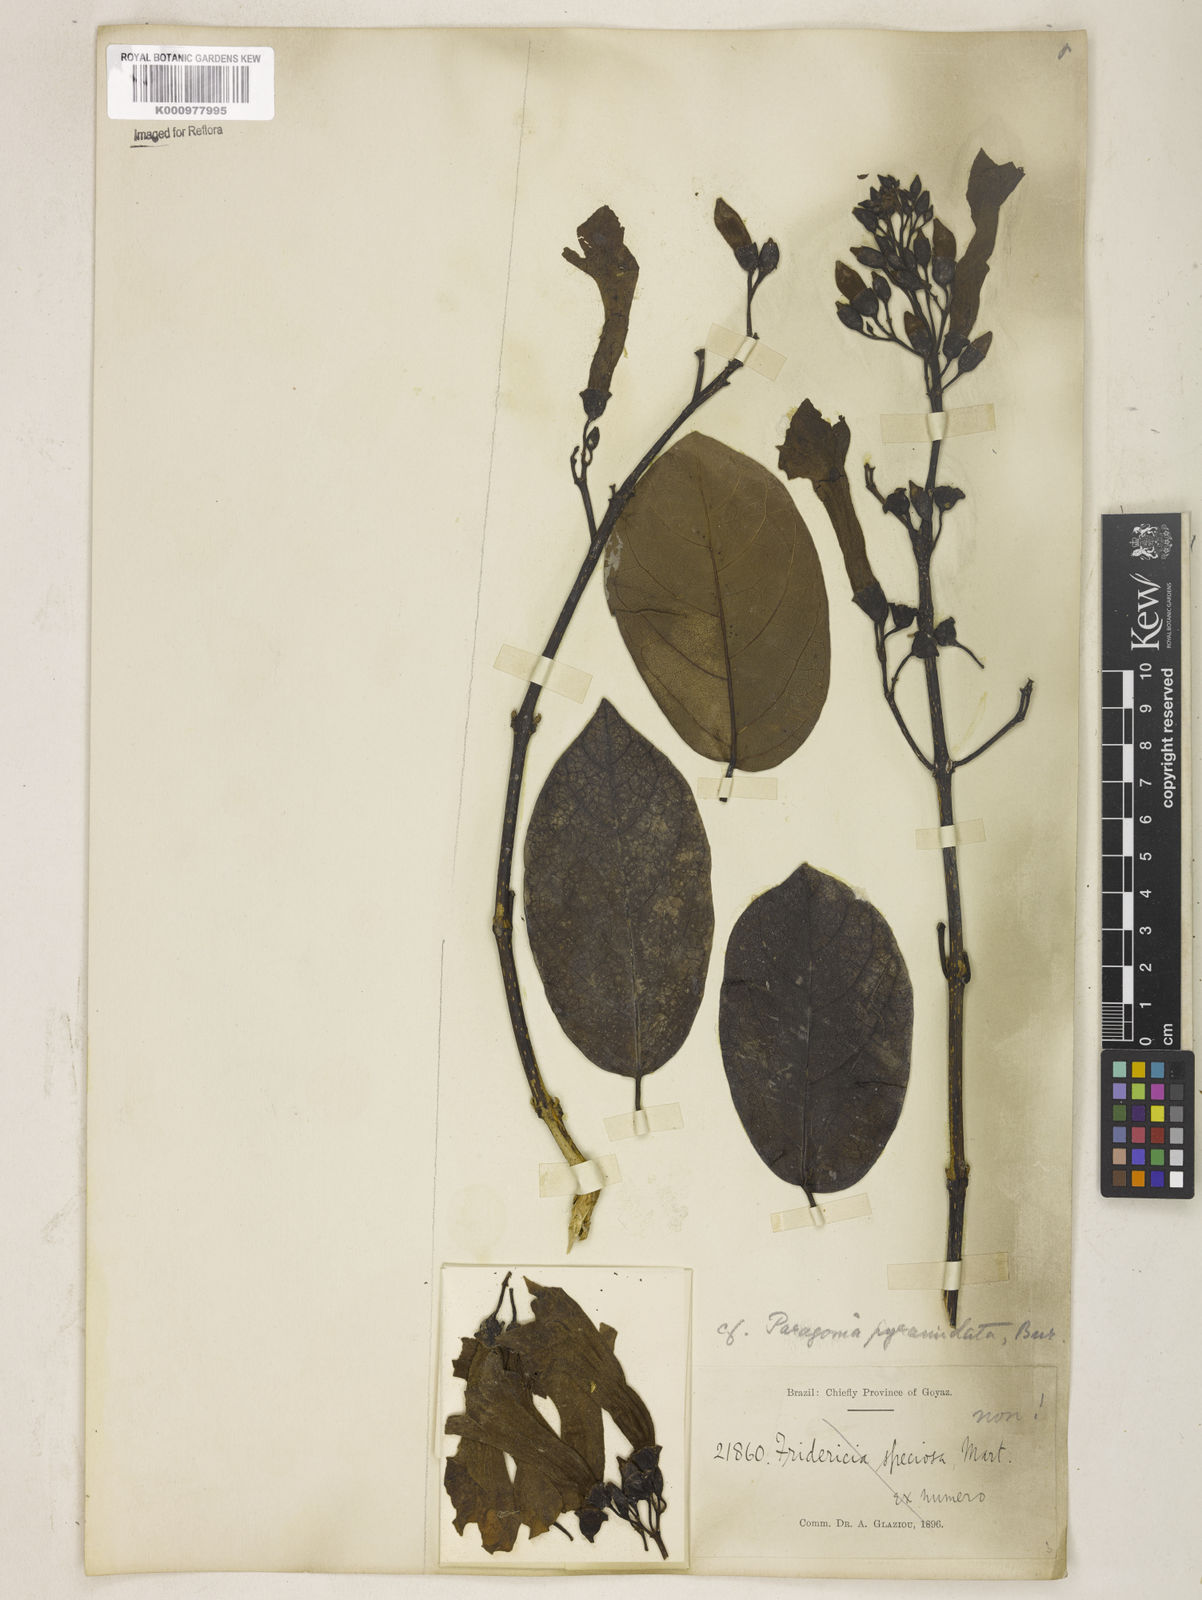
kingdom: Plantae
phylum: Tracheophyta
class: Magnoliopsida
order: Lamiales
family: Bignoniaceae
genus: Tanaecium
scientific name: Tanaecium pyramidatum
